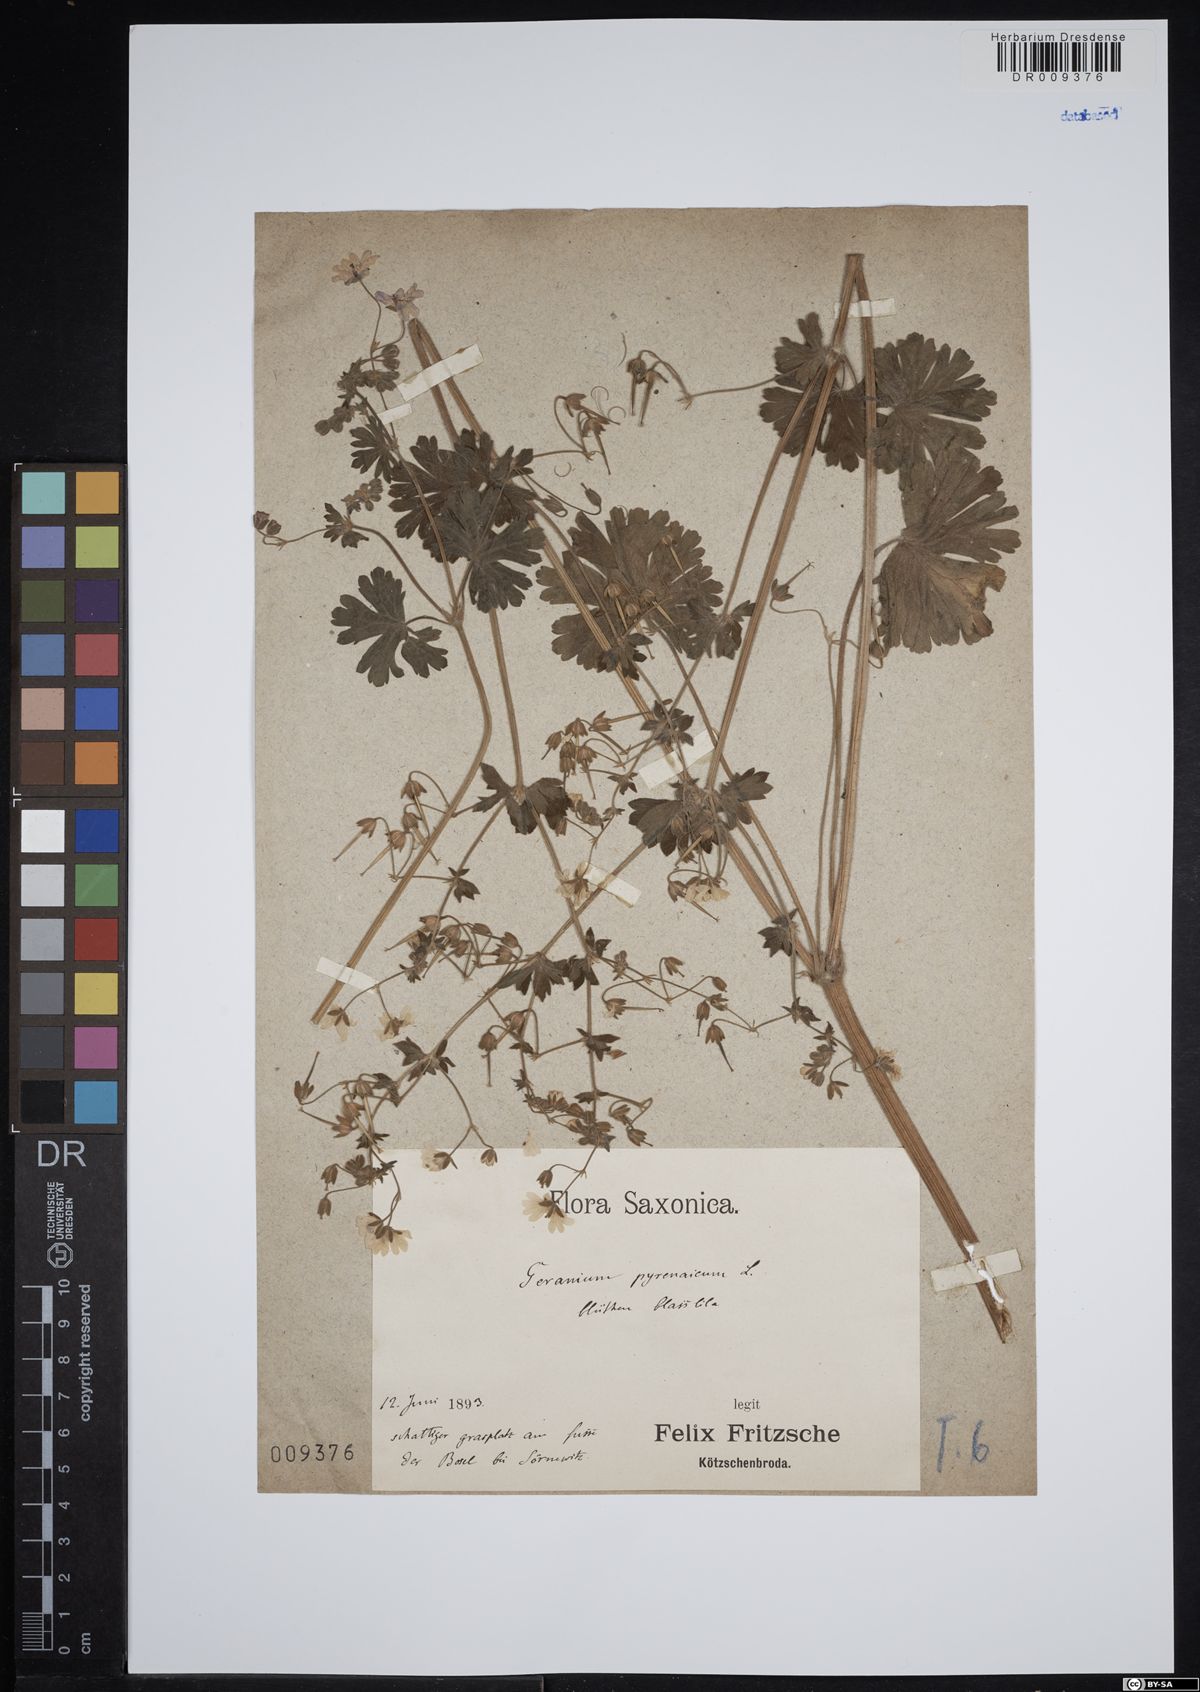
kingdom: Plantae
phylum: Tracheophyta
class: Magnoliopsida
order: Geraniales
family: Geraniaceae
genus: Geranium
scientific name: Geranium pyrenaicum
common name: Hedgerow crane's-bill
